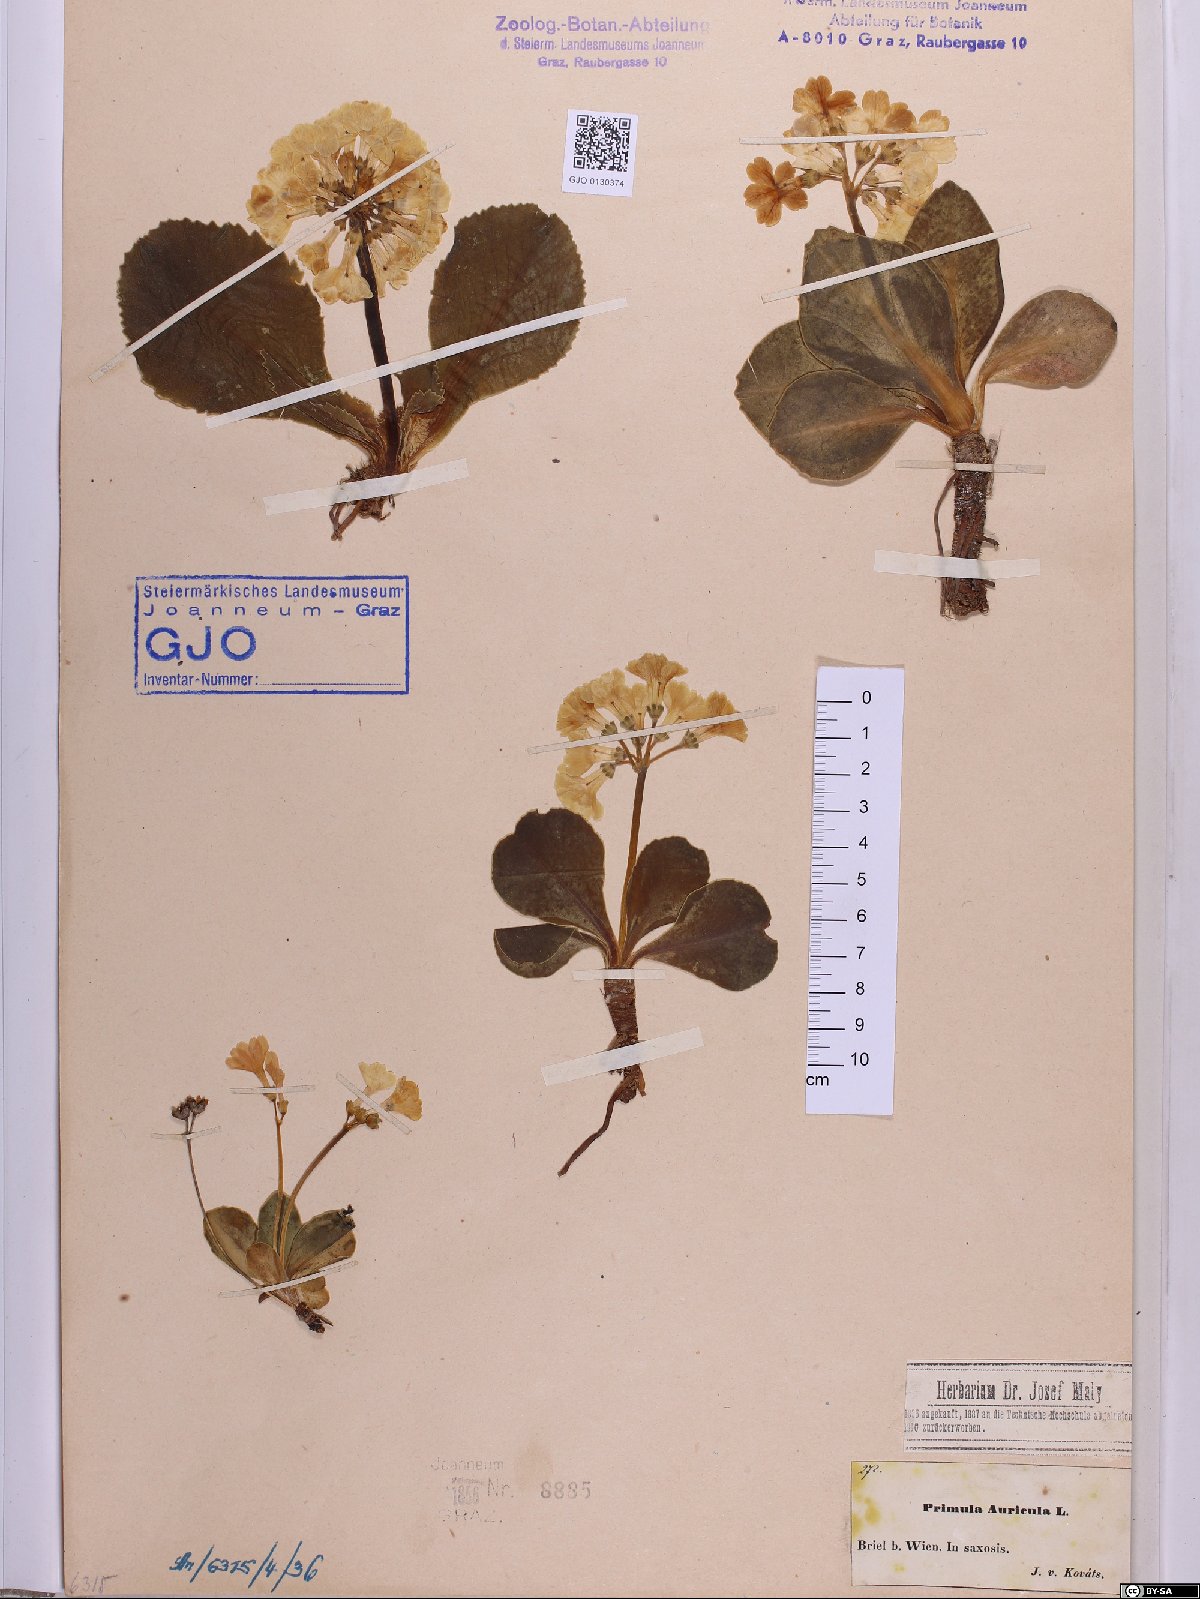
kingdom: Plantae
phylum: Tracheophyta
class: Magnoliopsida
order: Ericales
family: Primulaceae
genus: Primula
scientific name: Primula auricula
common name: Auricula
